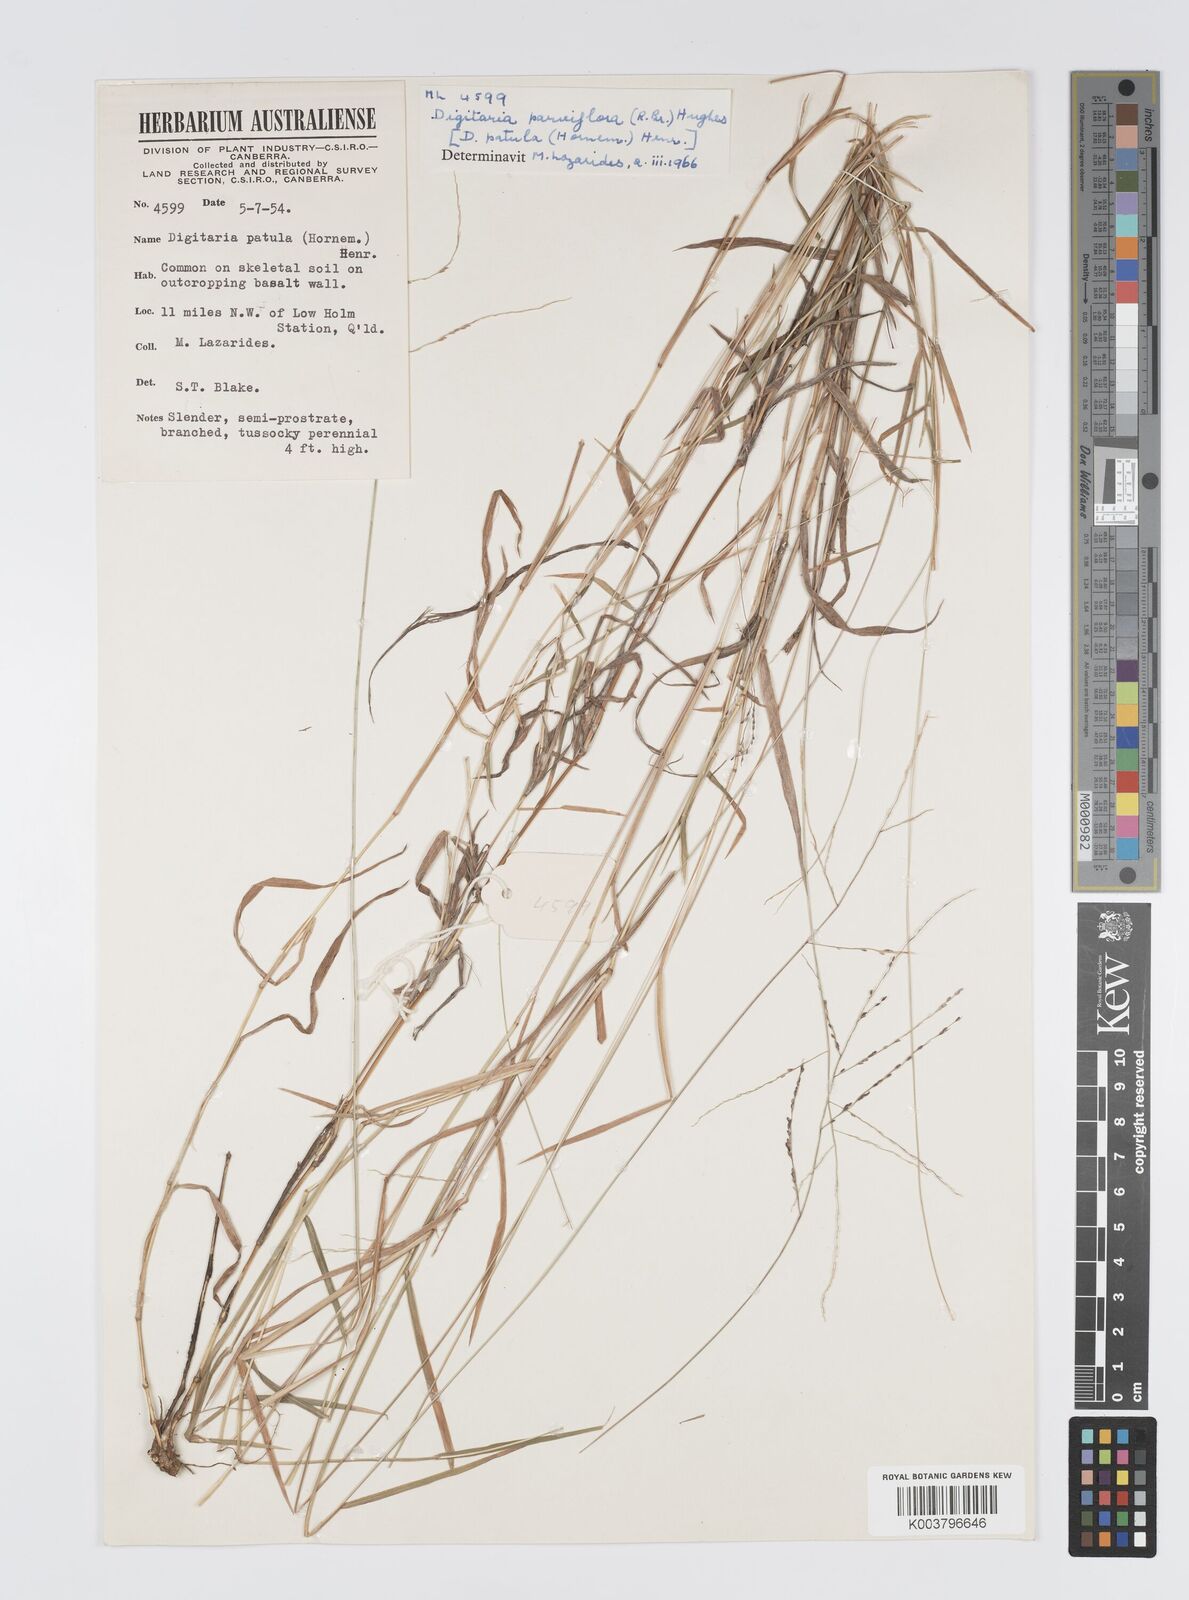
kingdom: Plantae
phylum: Tracheophyta
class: Liliopsida
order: Poales
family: Poaceae
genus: Digitaria
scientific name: Digitaria parviflora
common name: Small-flower finger grass
